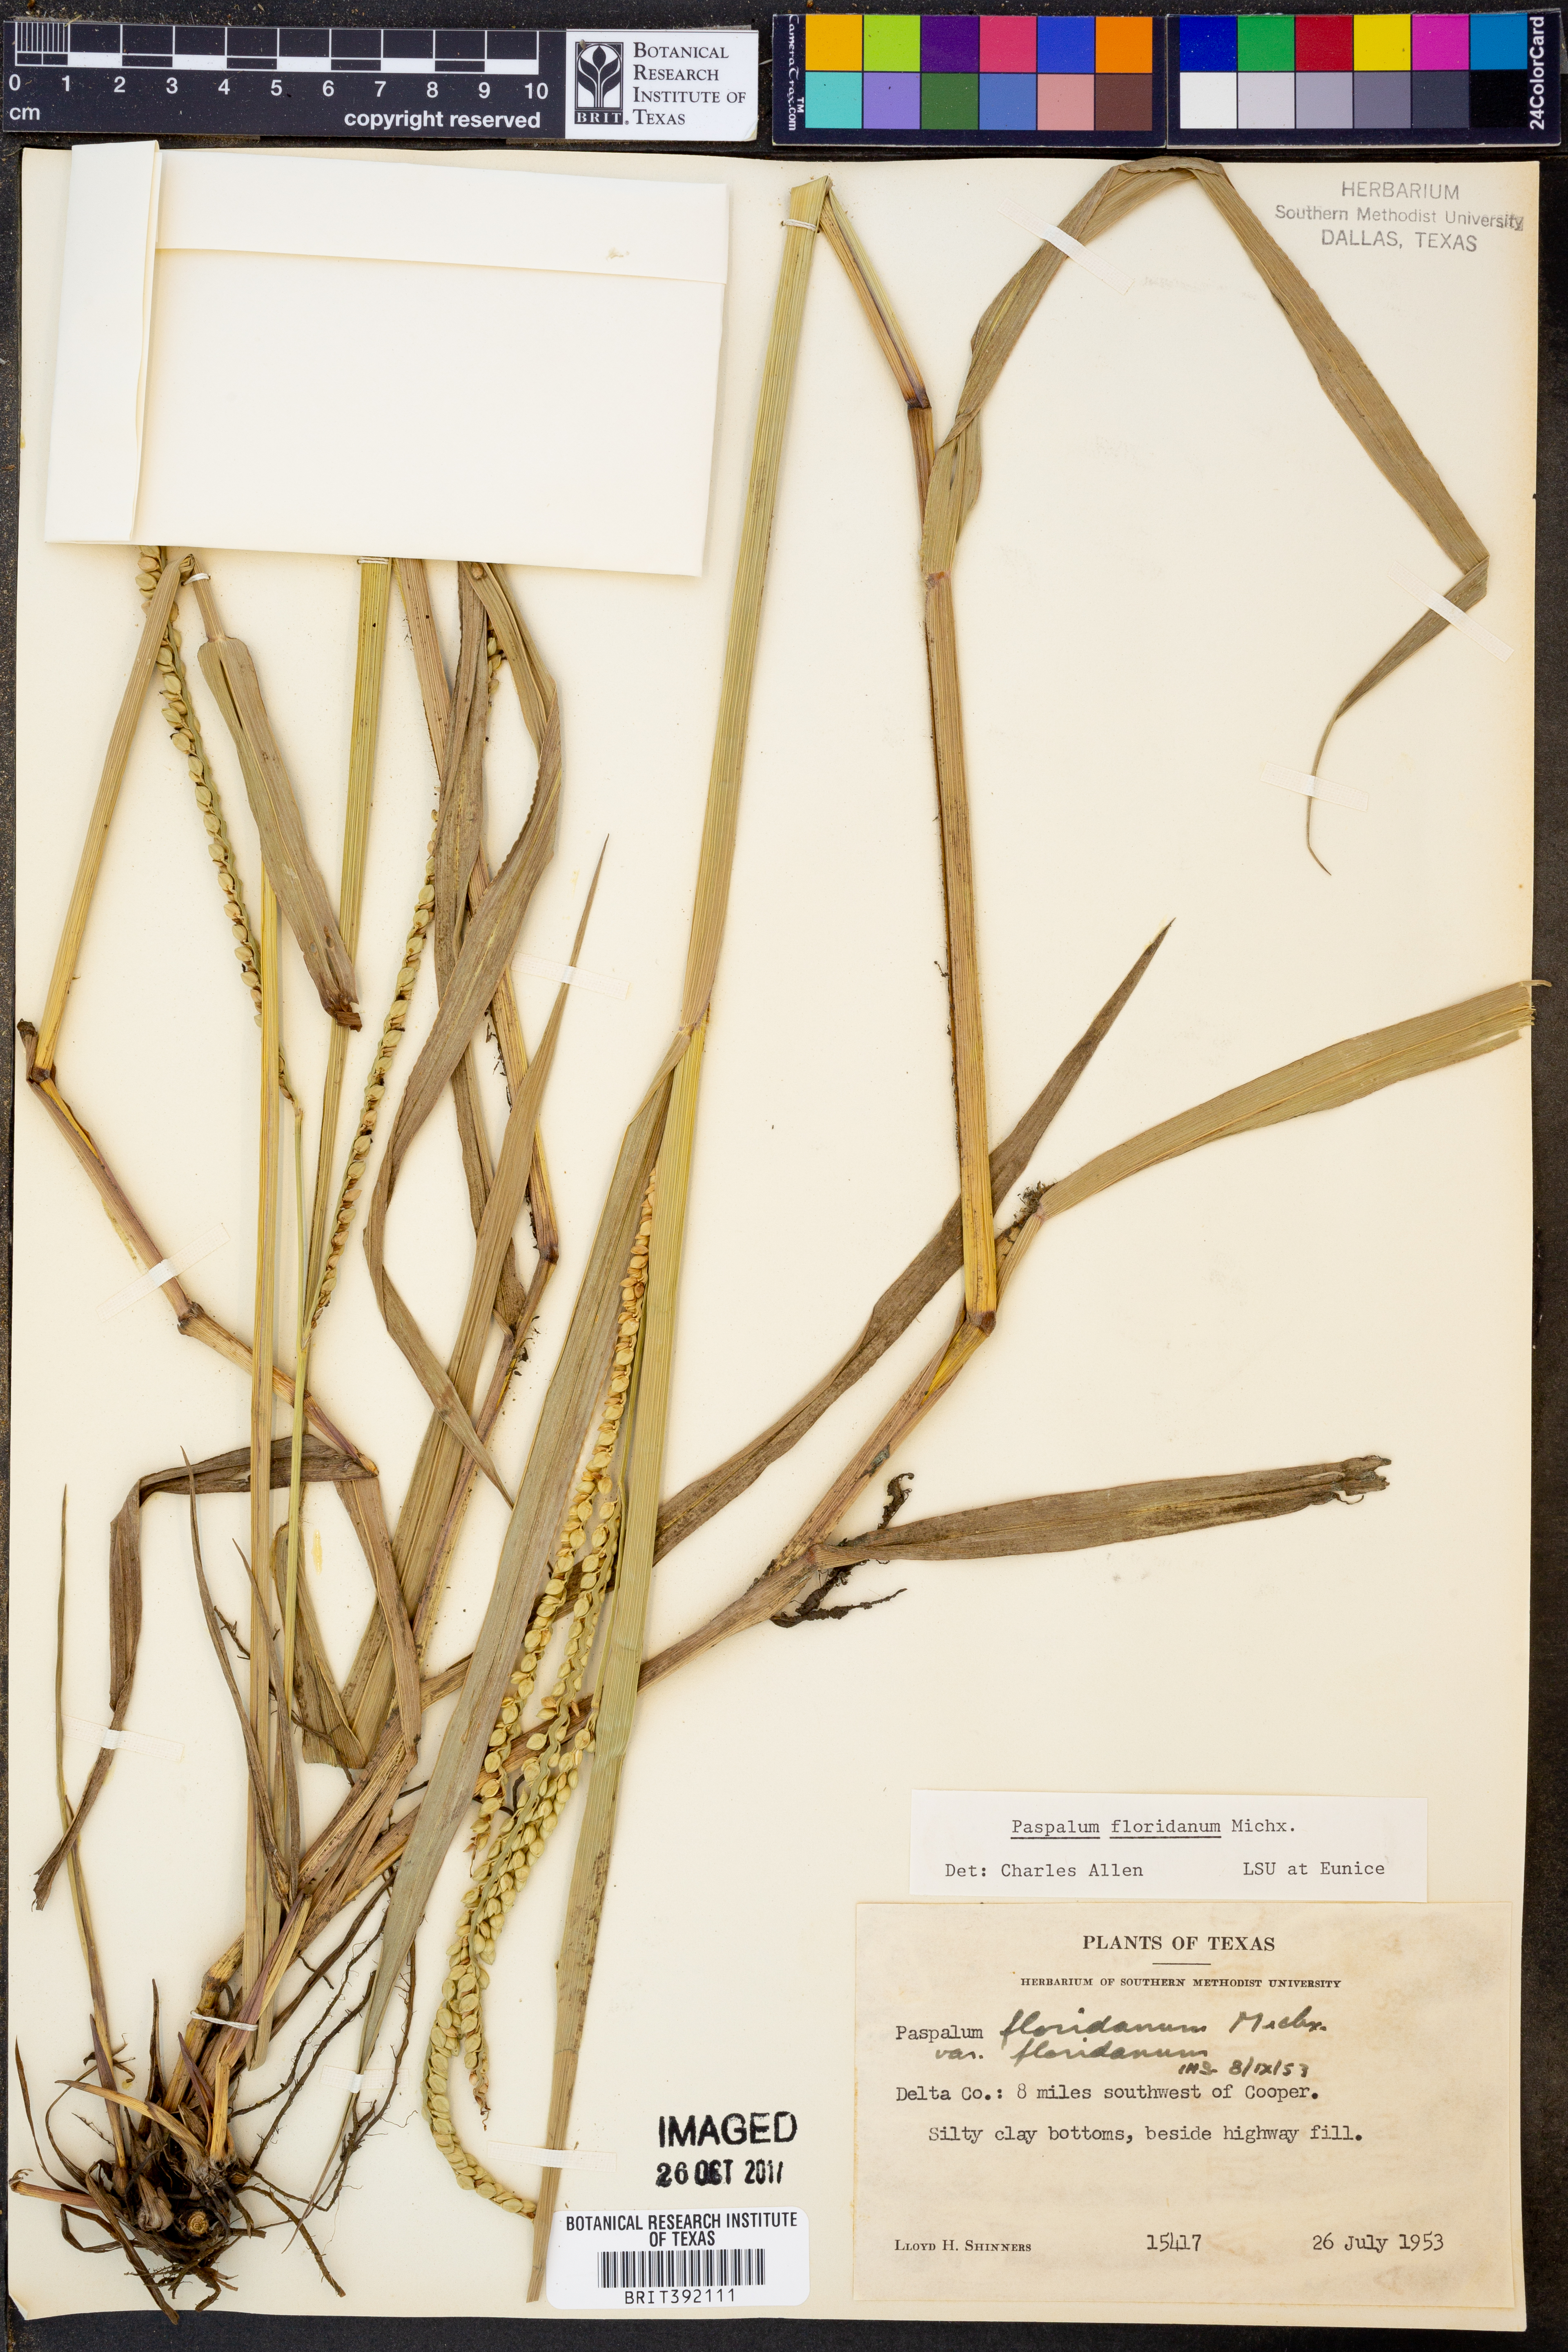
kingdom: Plantae
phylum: Tracheophyta
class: Liliopsida
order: Poales
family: Poaceae
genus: Paspalum
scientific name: Paspalum floridanum
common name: Florida paspalum
